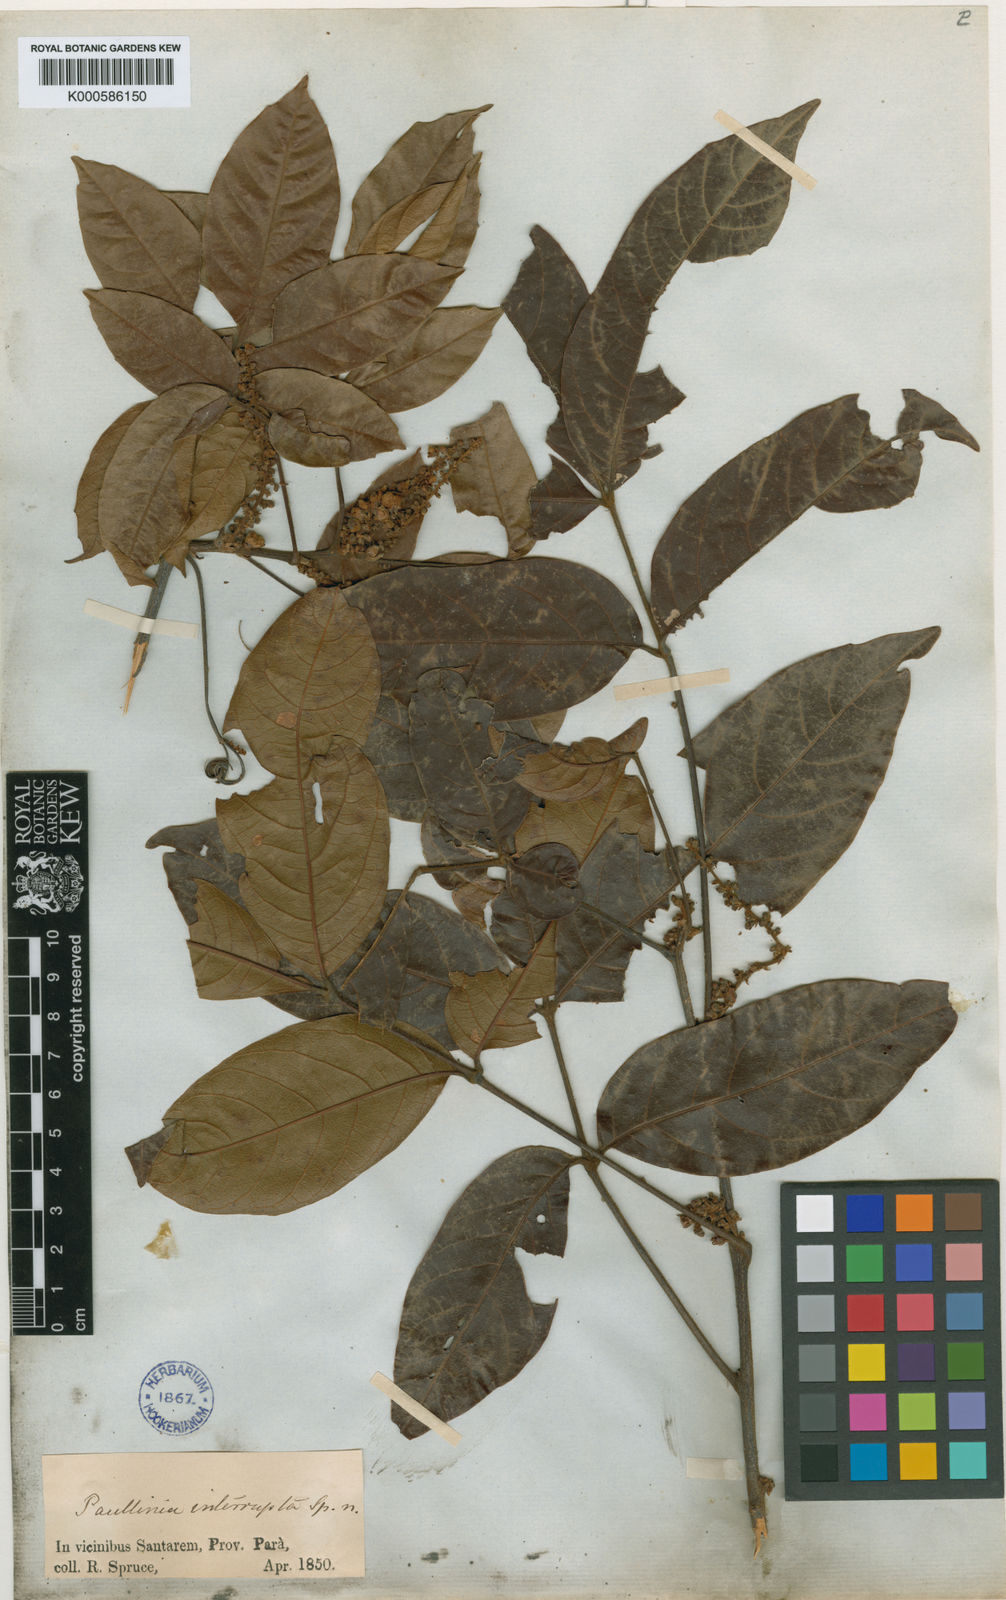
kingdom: Plantae
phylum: Tracheophyta
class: Magnoliopsida
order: Sapindales
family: Sapindaceae
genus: Paullinia
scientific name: Paullinia interrupta
